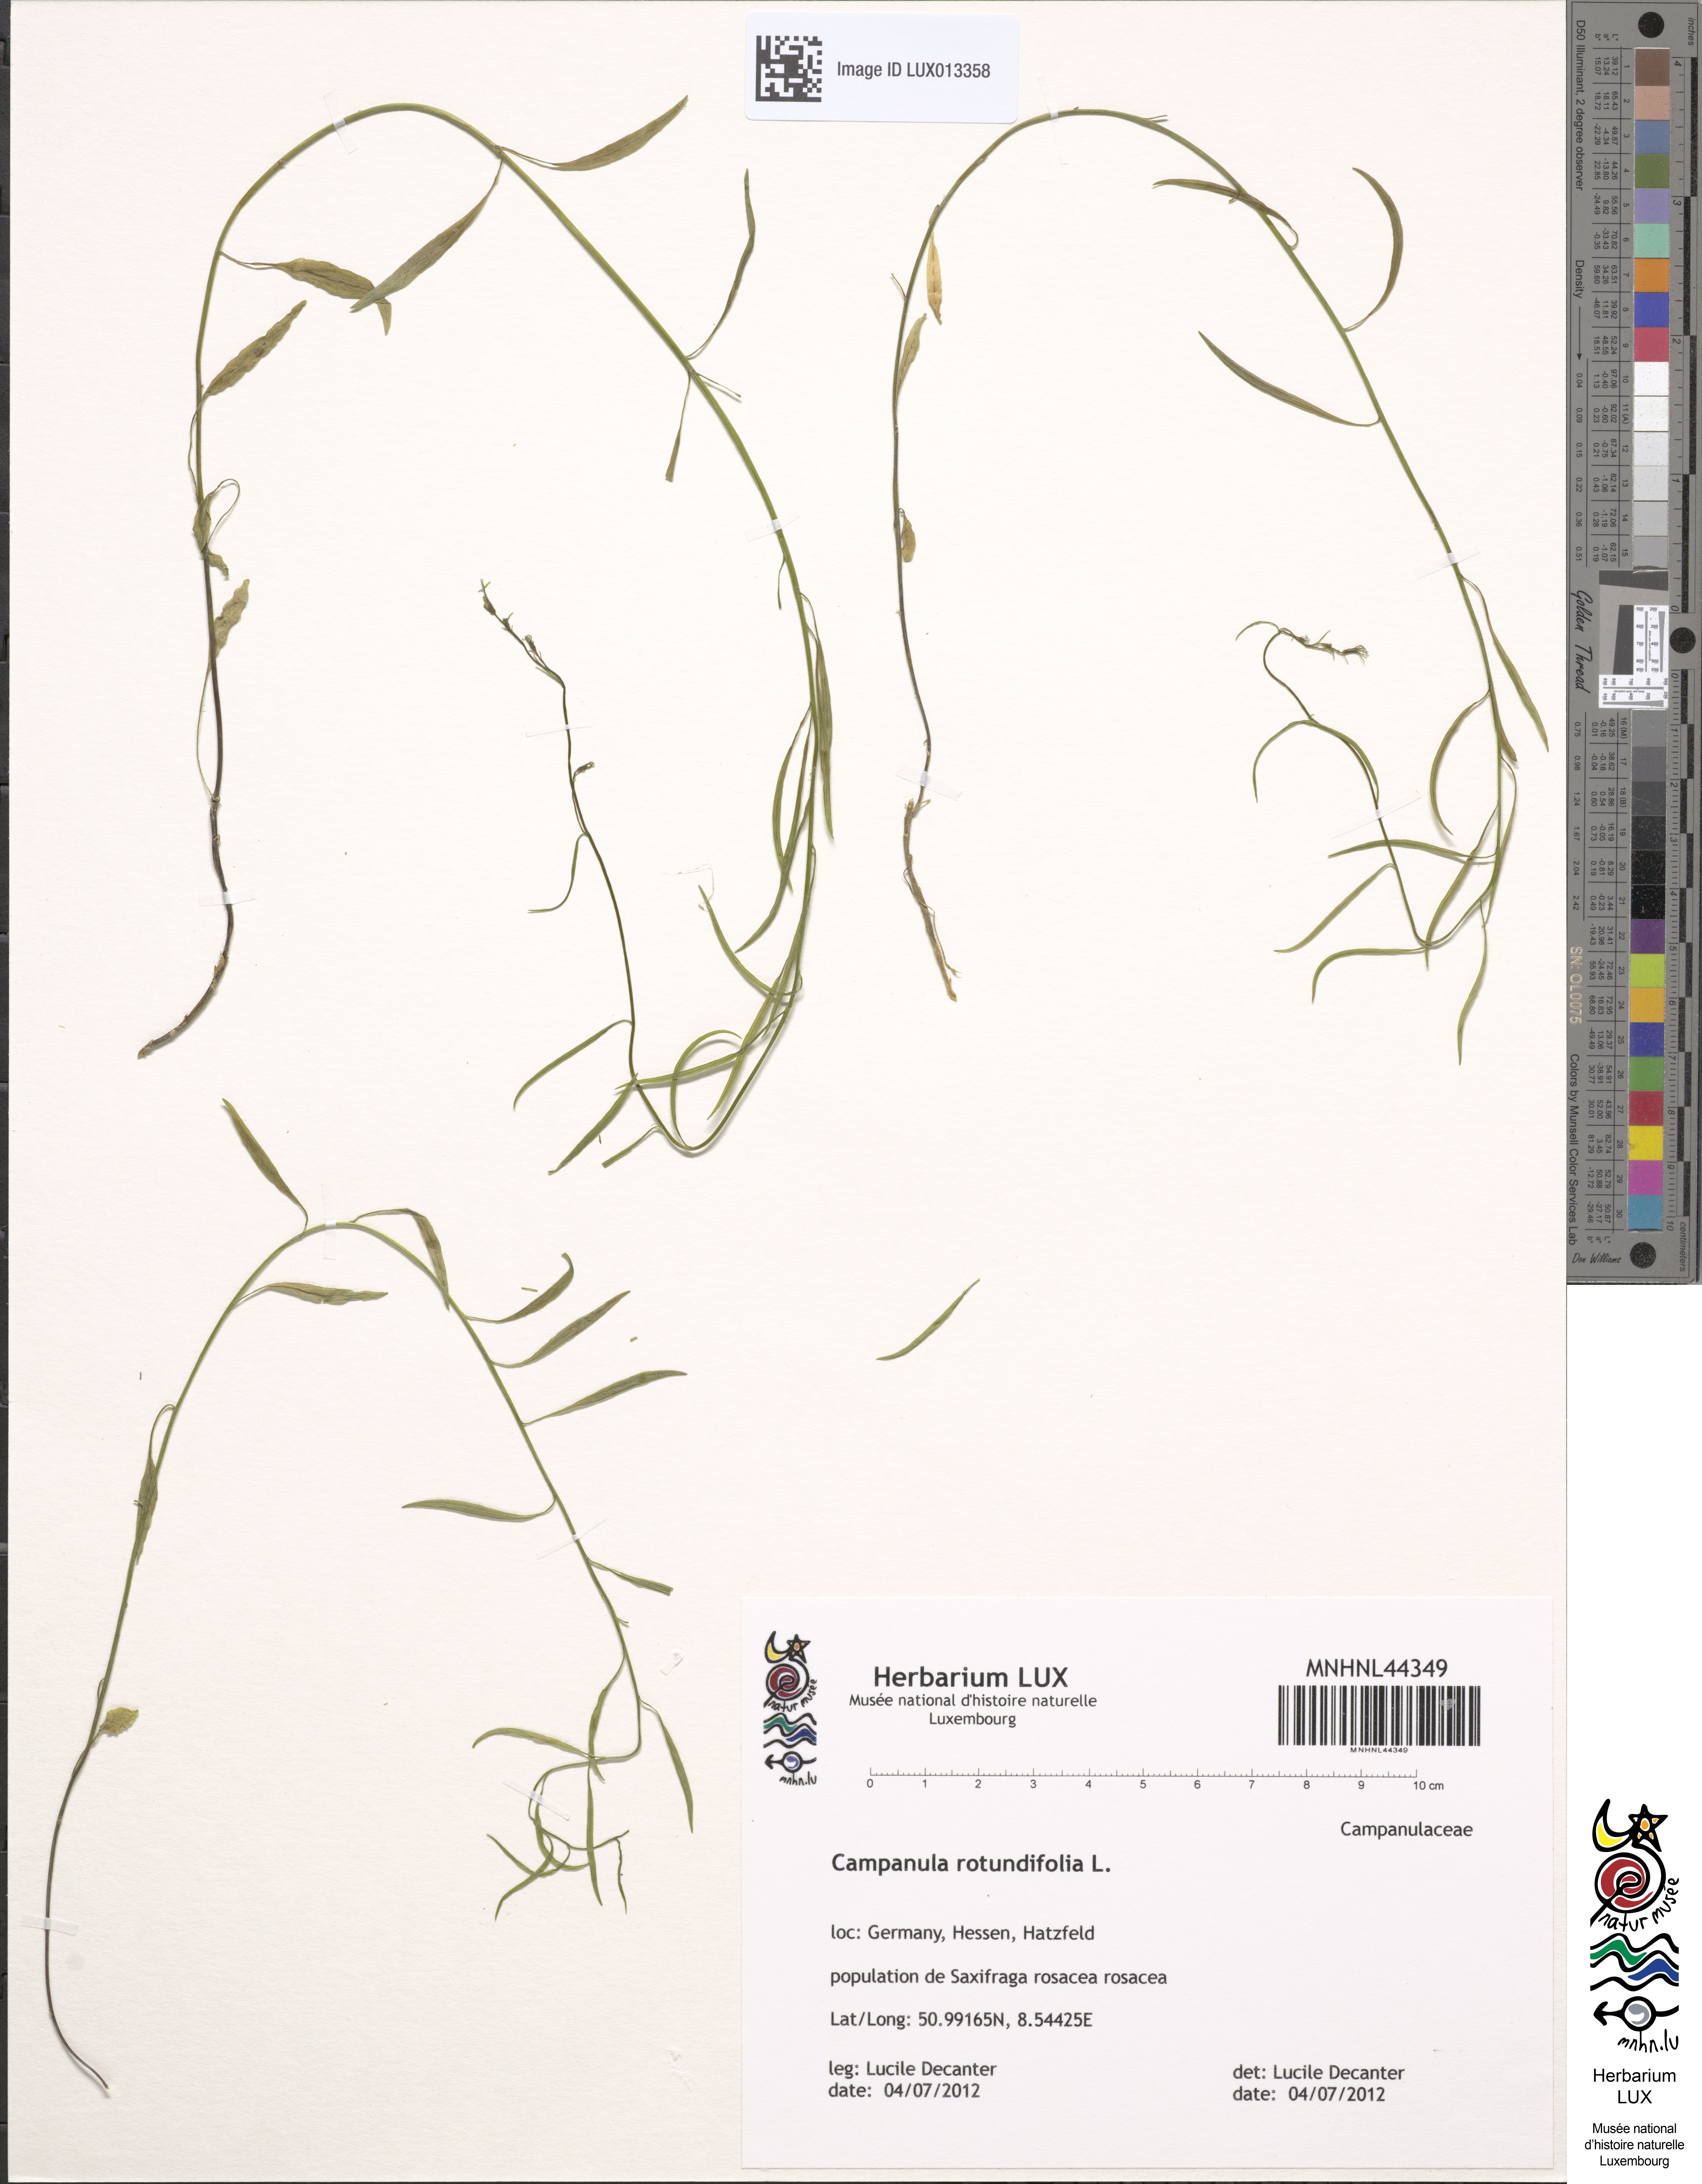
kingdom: Plantae
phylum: Tracheophyta
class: Magnoliopsida
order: Asterales
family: Campanulaceae
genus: Campanula
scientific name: Campanula rotundifolia
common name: Harebell
